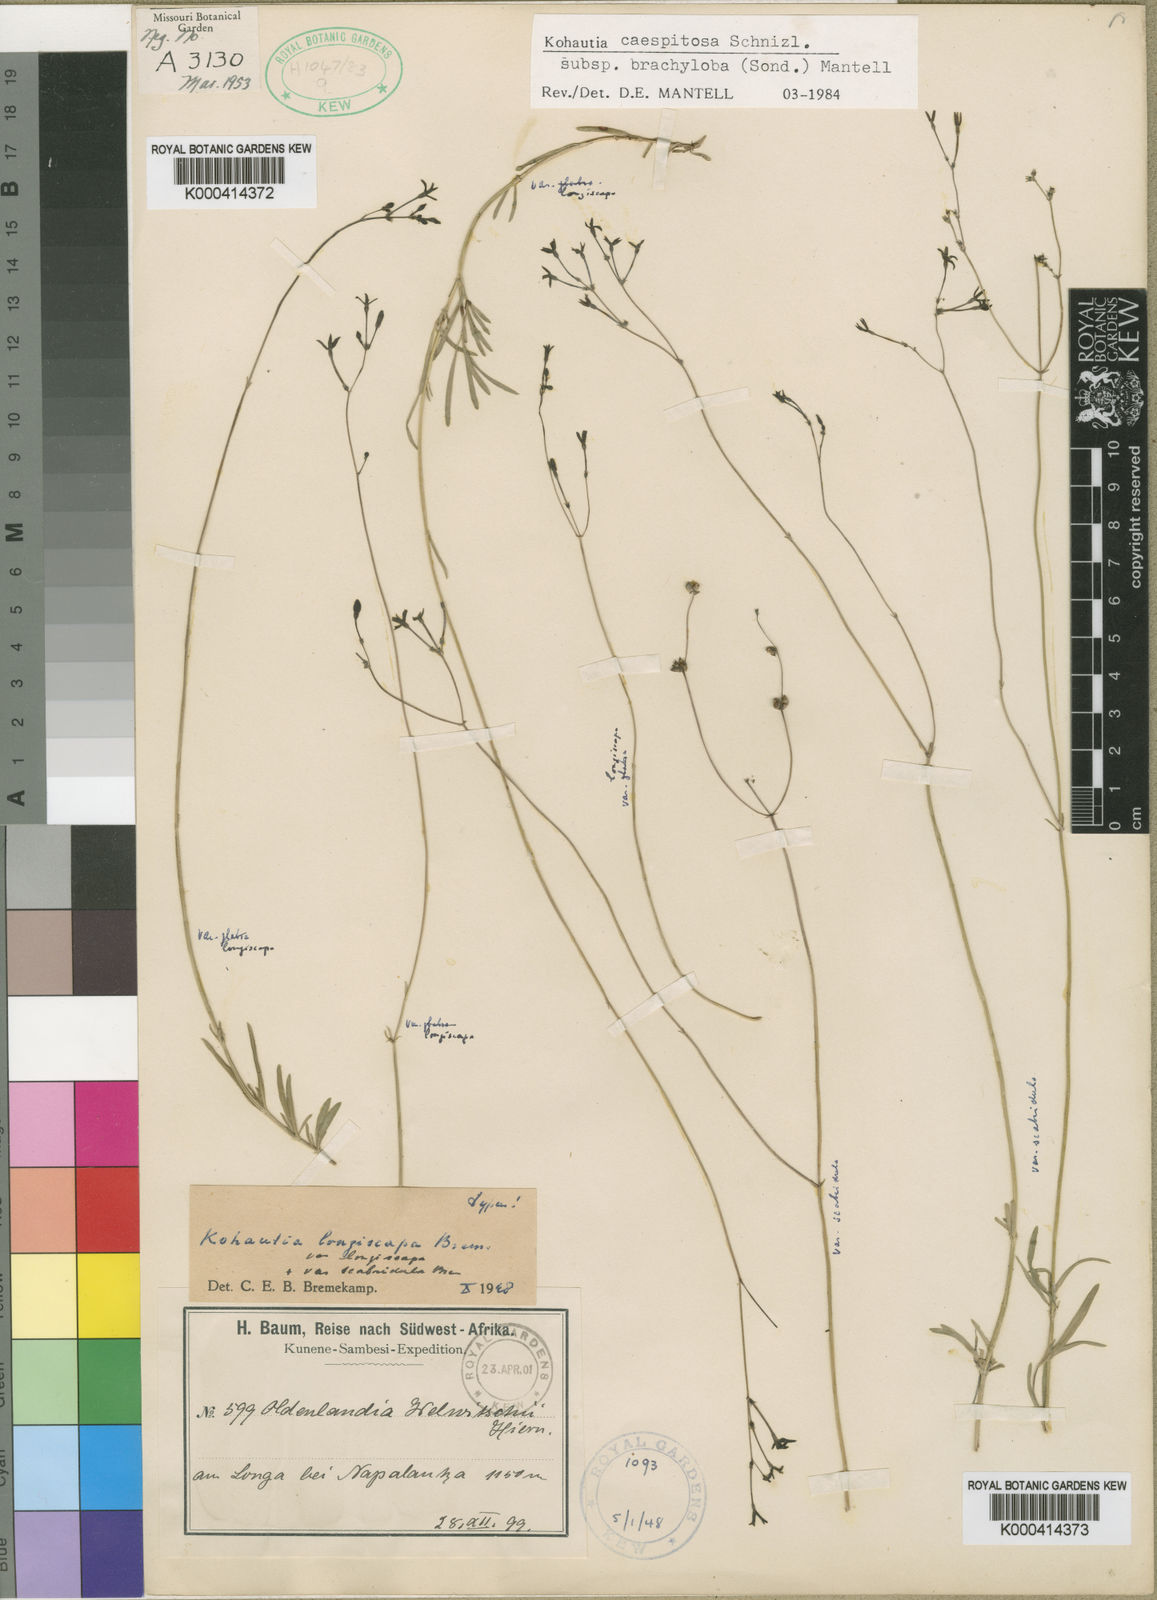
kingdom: Plantae
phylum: Tracheophyta
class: Magnoliopsida
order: Gentianales
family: Rubiaceae
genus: Kohautia
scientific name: Kohautia caespitosa
